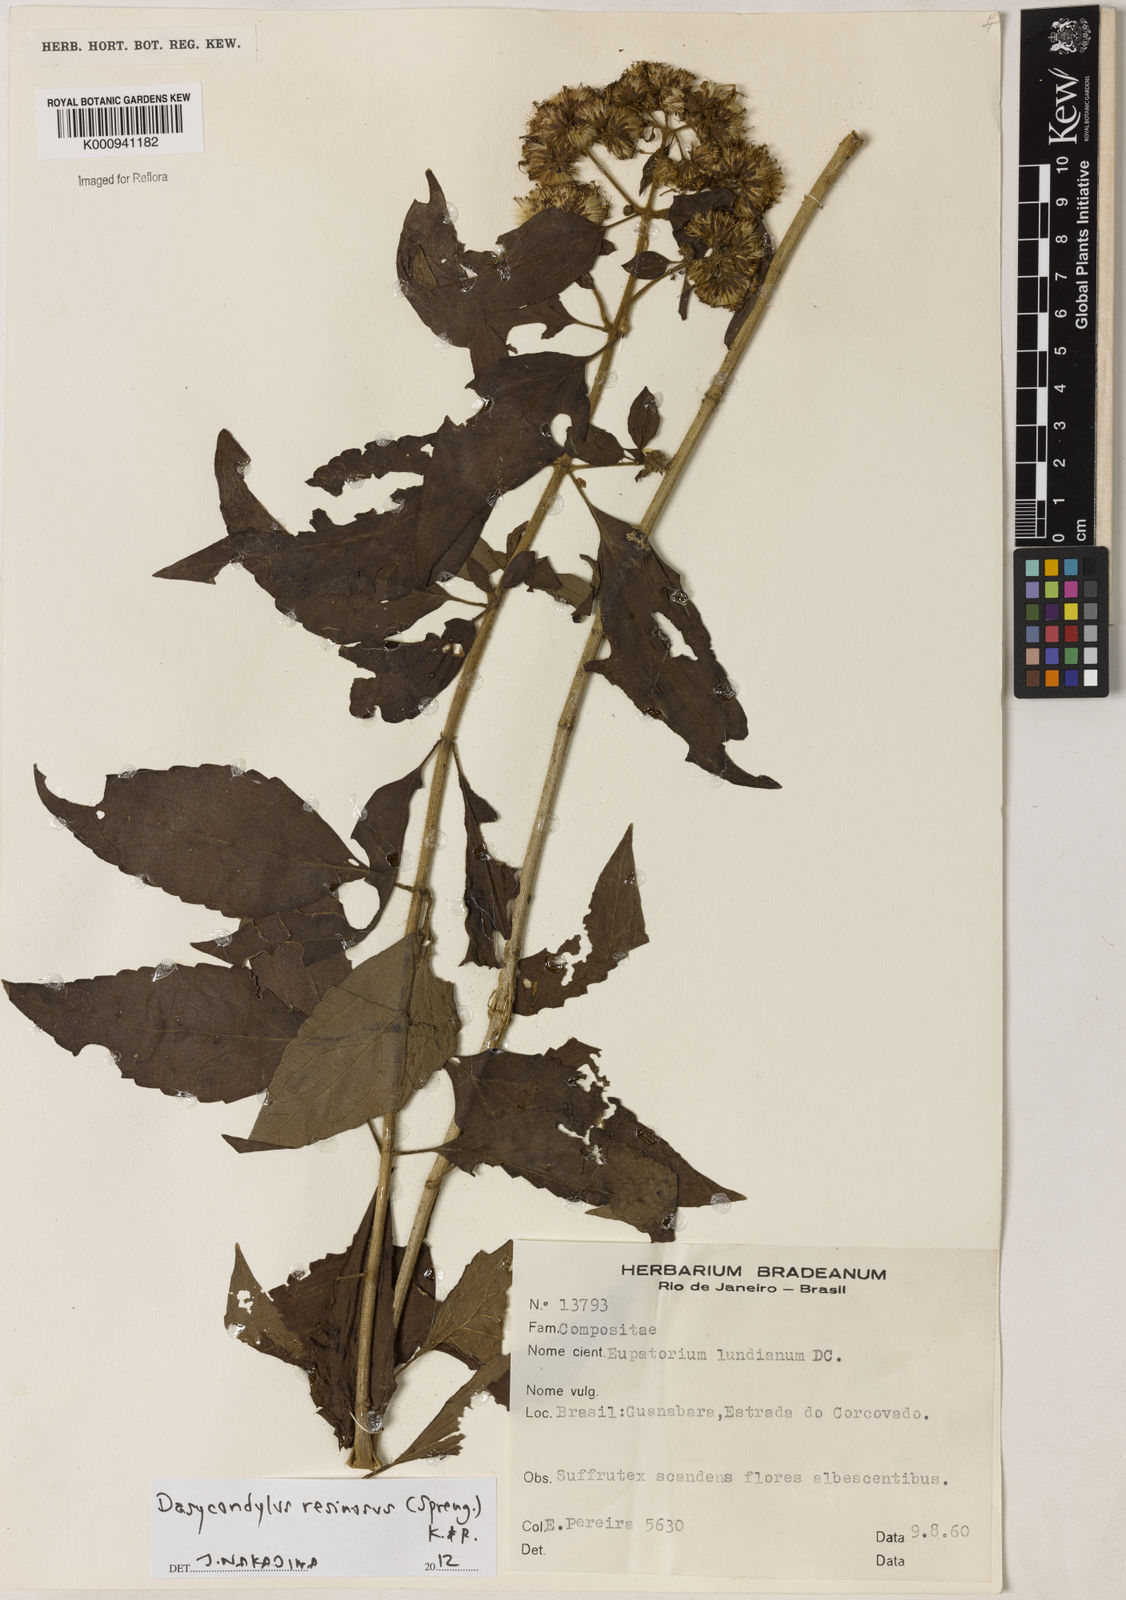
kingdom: Plantae
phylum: Tracheophyta
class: Magnoliopsida
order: Asterales
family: Asteraceae
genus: Dasycondylus
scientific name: Dasycondylus resinosus
